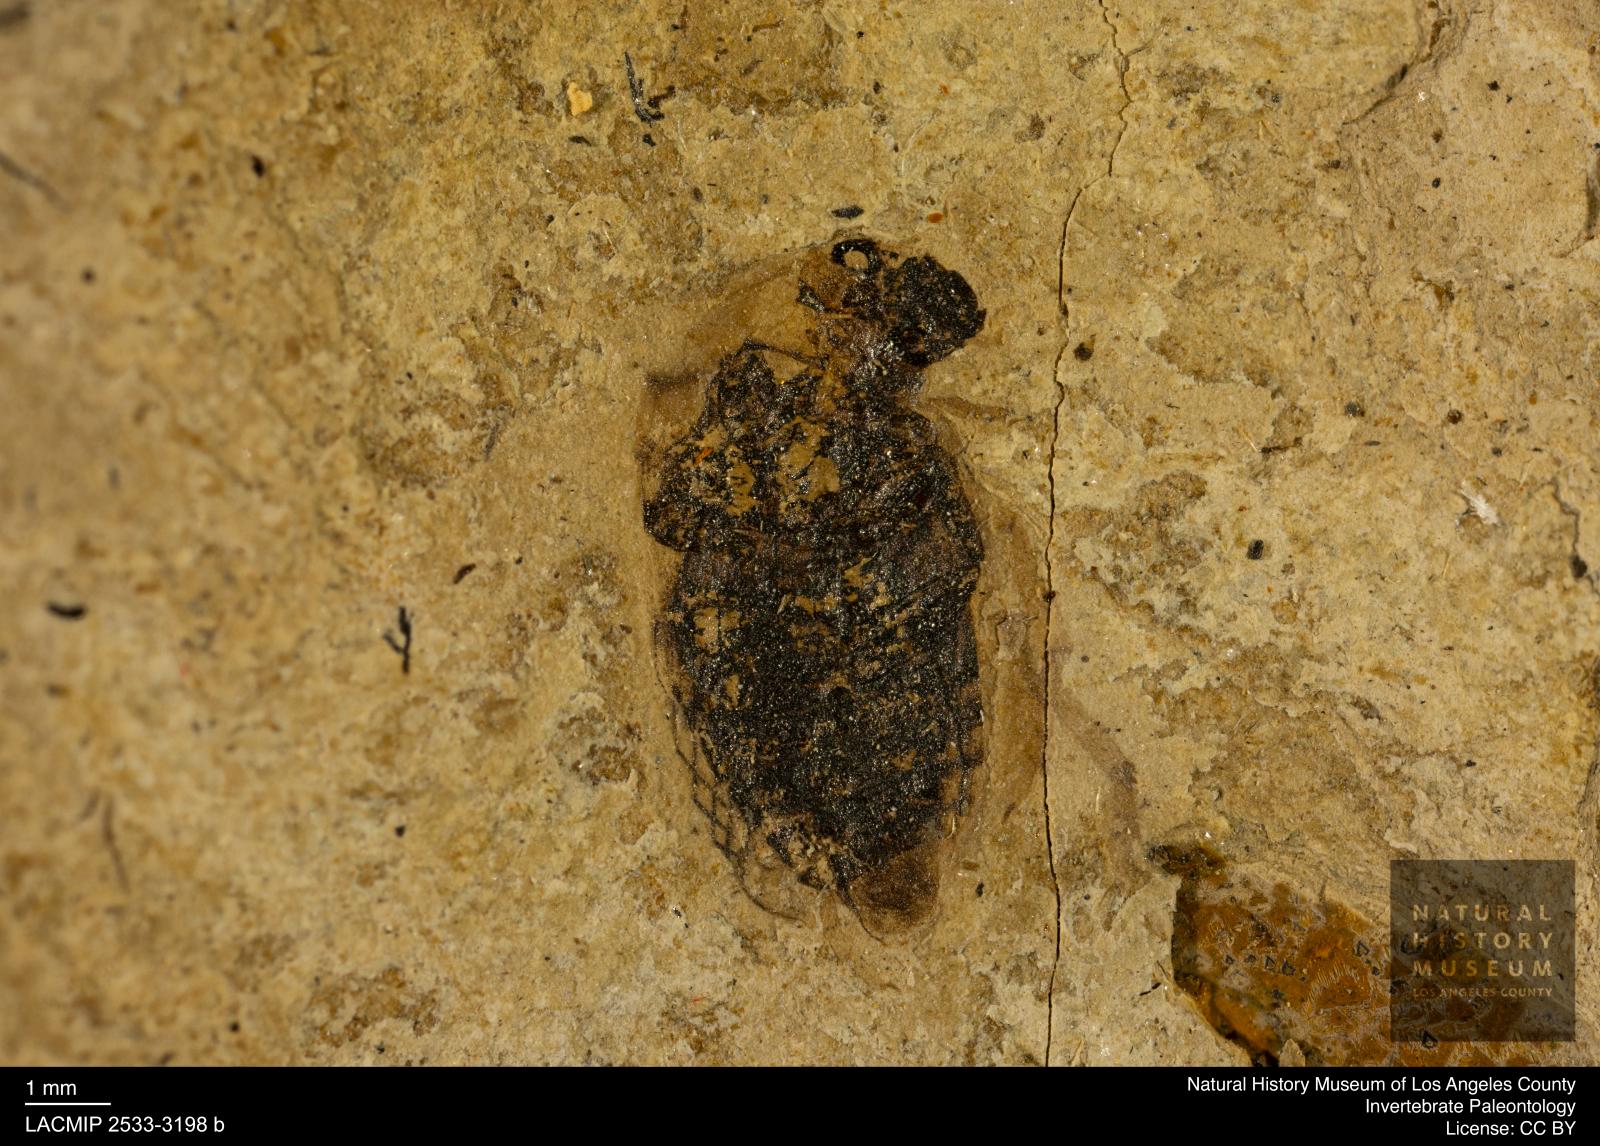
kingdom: Animalia
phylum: Arthropoda
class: Insecta
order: Coleoptera
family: Hydrophilidae
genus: Berosus
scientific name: Berosus morticinus
